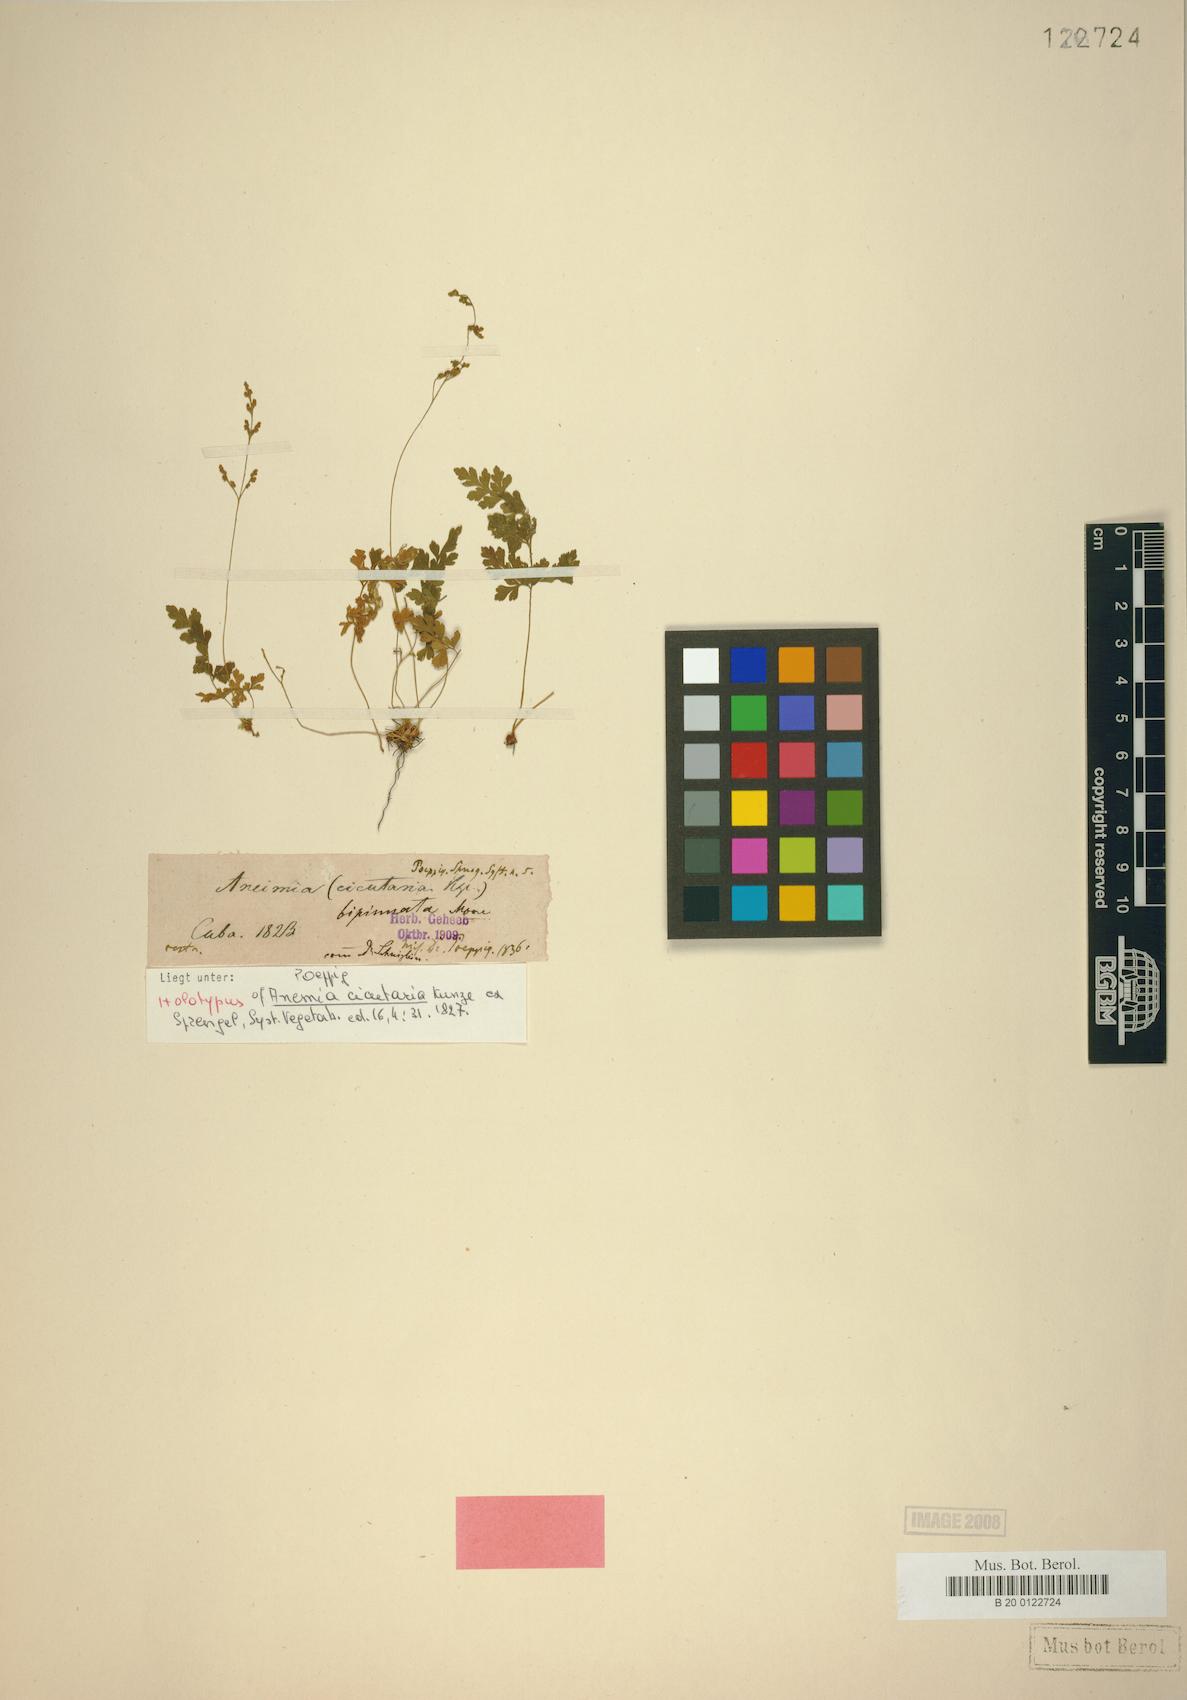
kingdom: Plantae
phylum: Tracheophyta
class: Polypodiopsida
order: Schizaeales
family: Anemiaceae
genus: Anemia
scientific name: Anemia cicutaria
